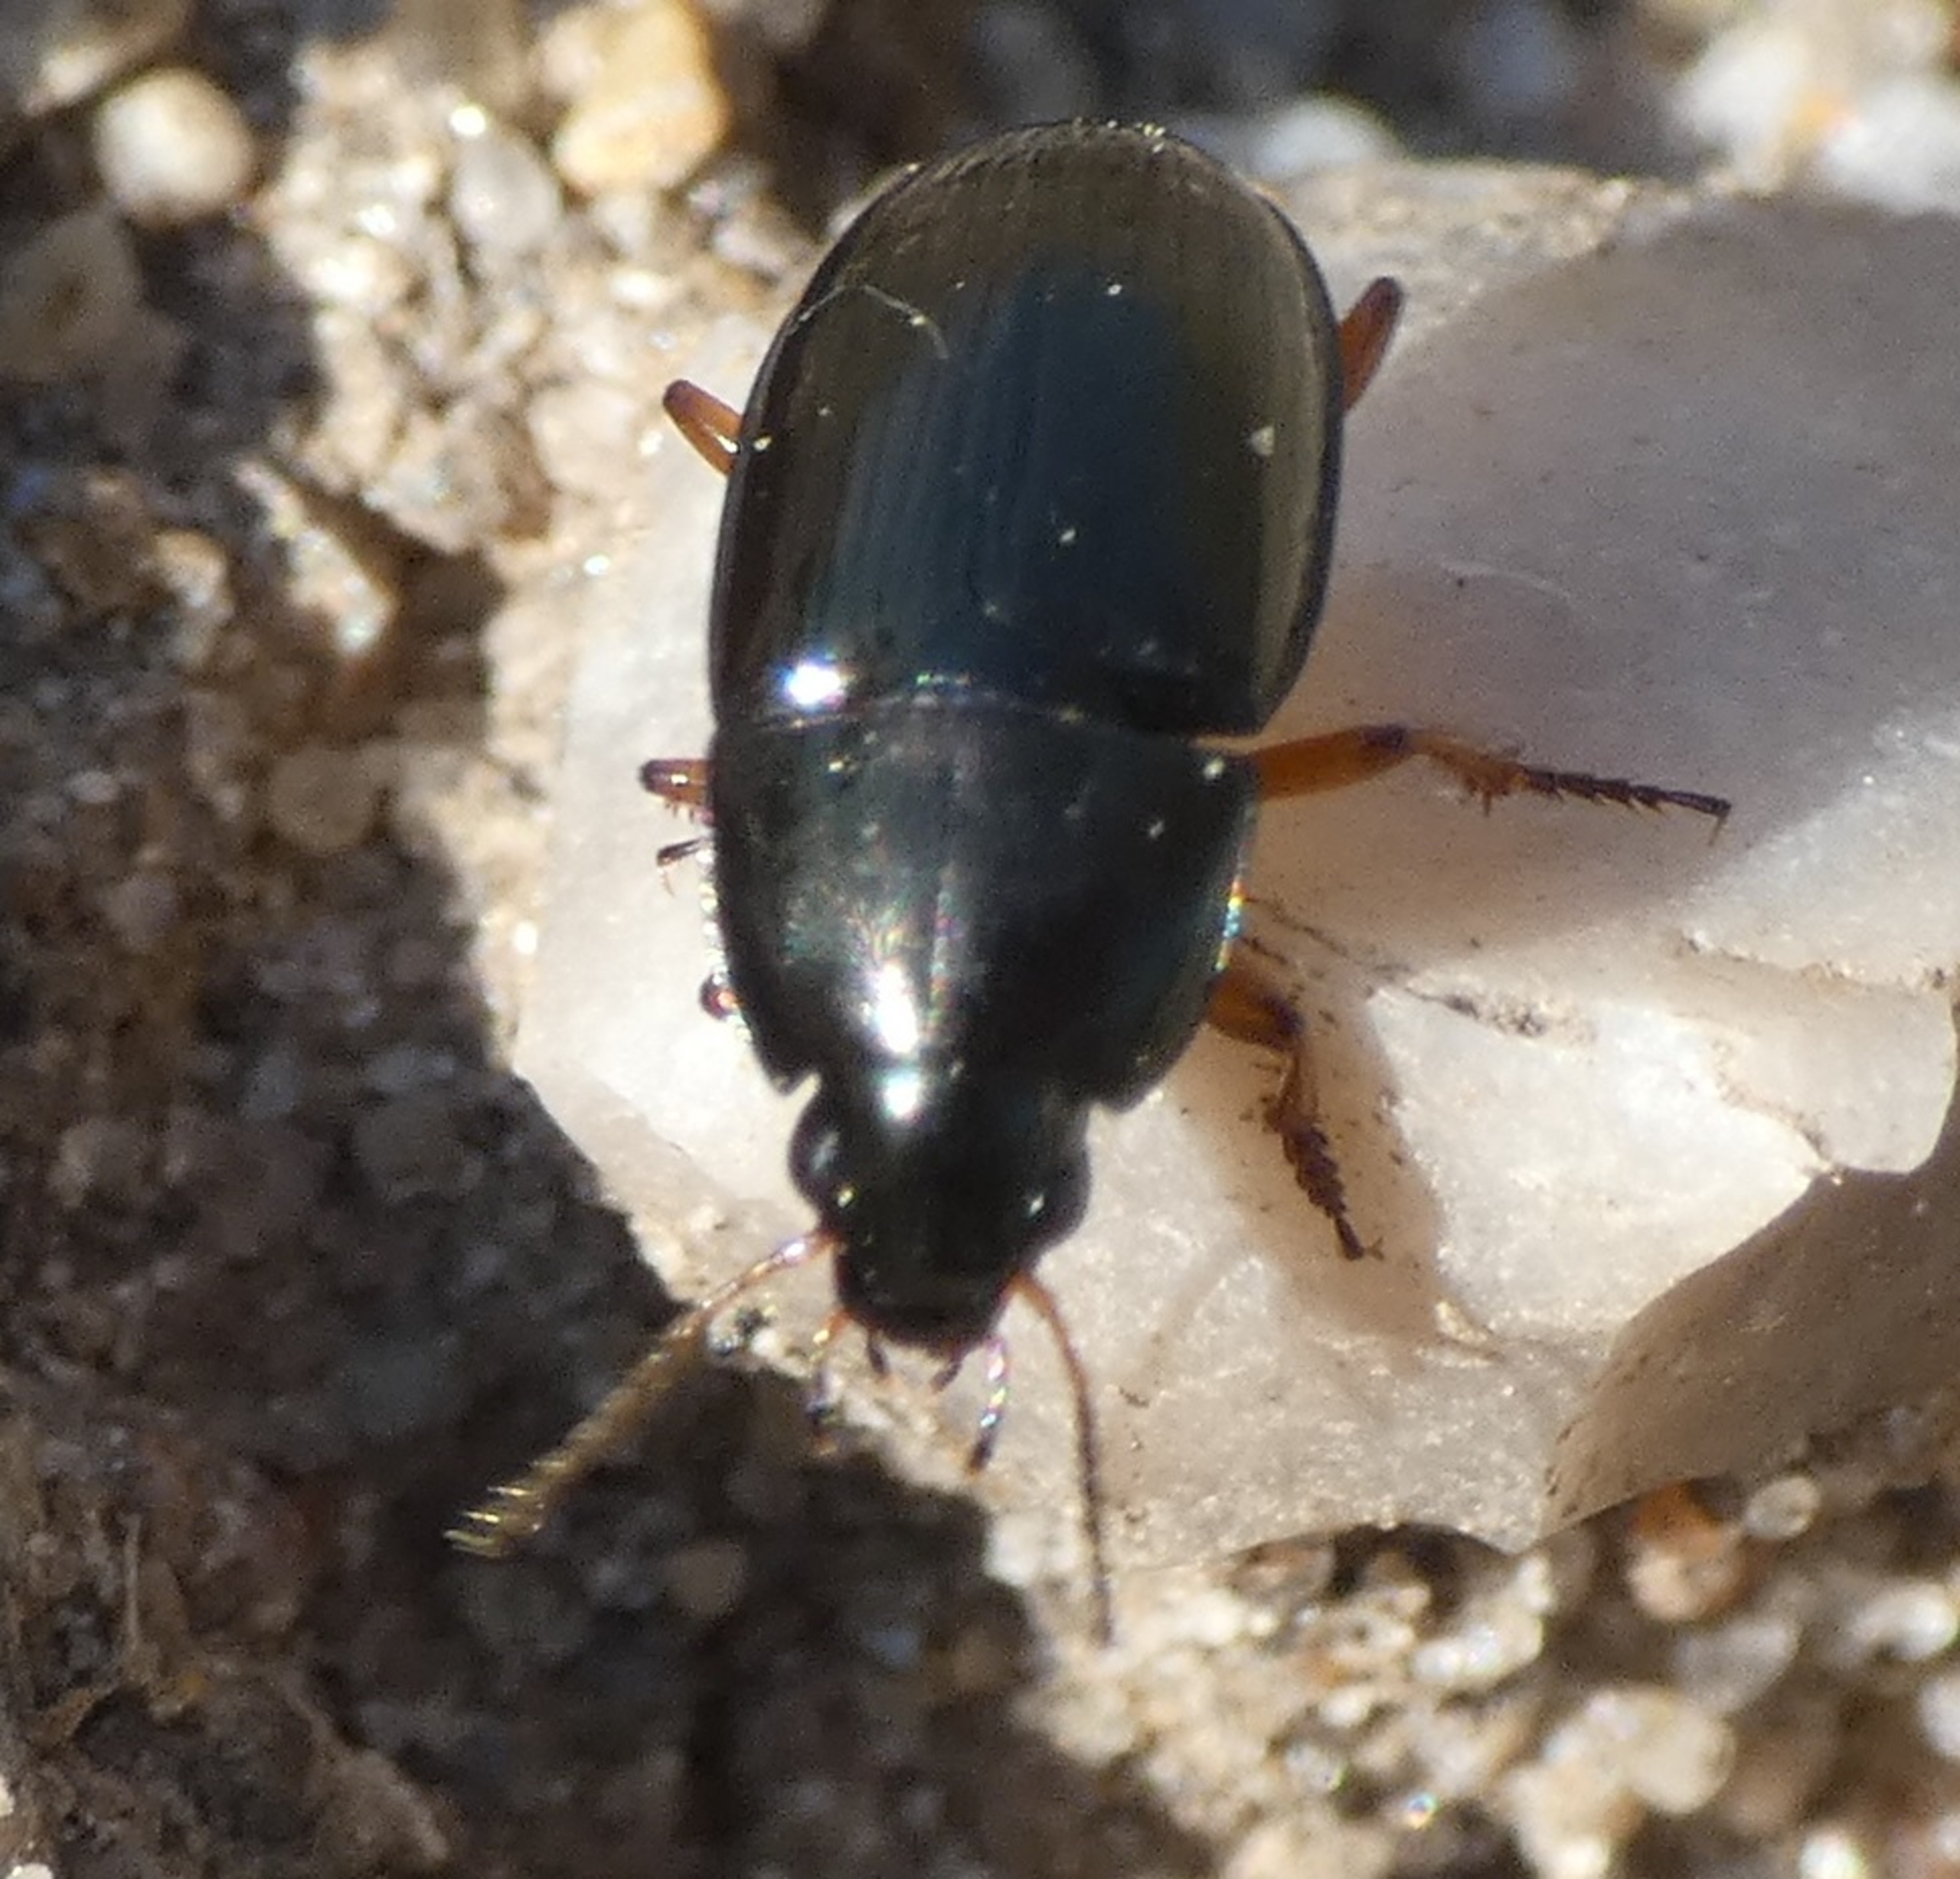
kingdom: Animalia
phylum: Arthropoda
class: Insecta
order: Coleoptera
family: Carabidae
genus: Amara
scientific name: Amara
